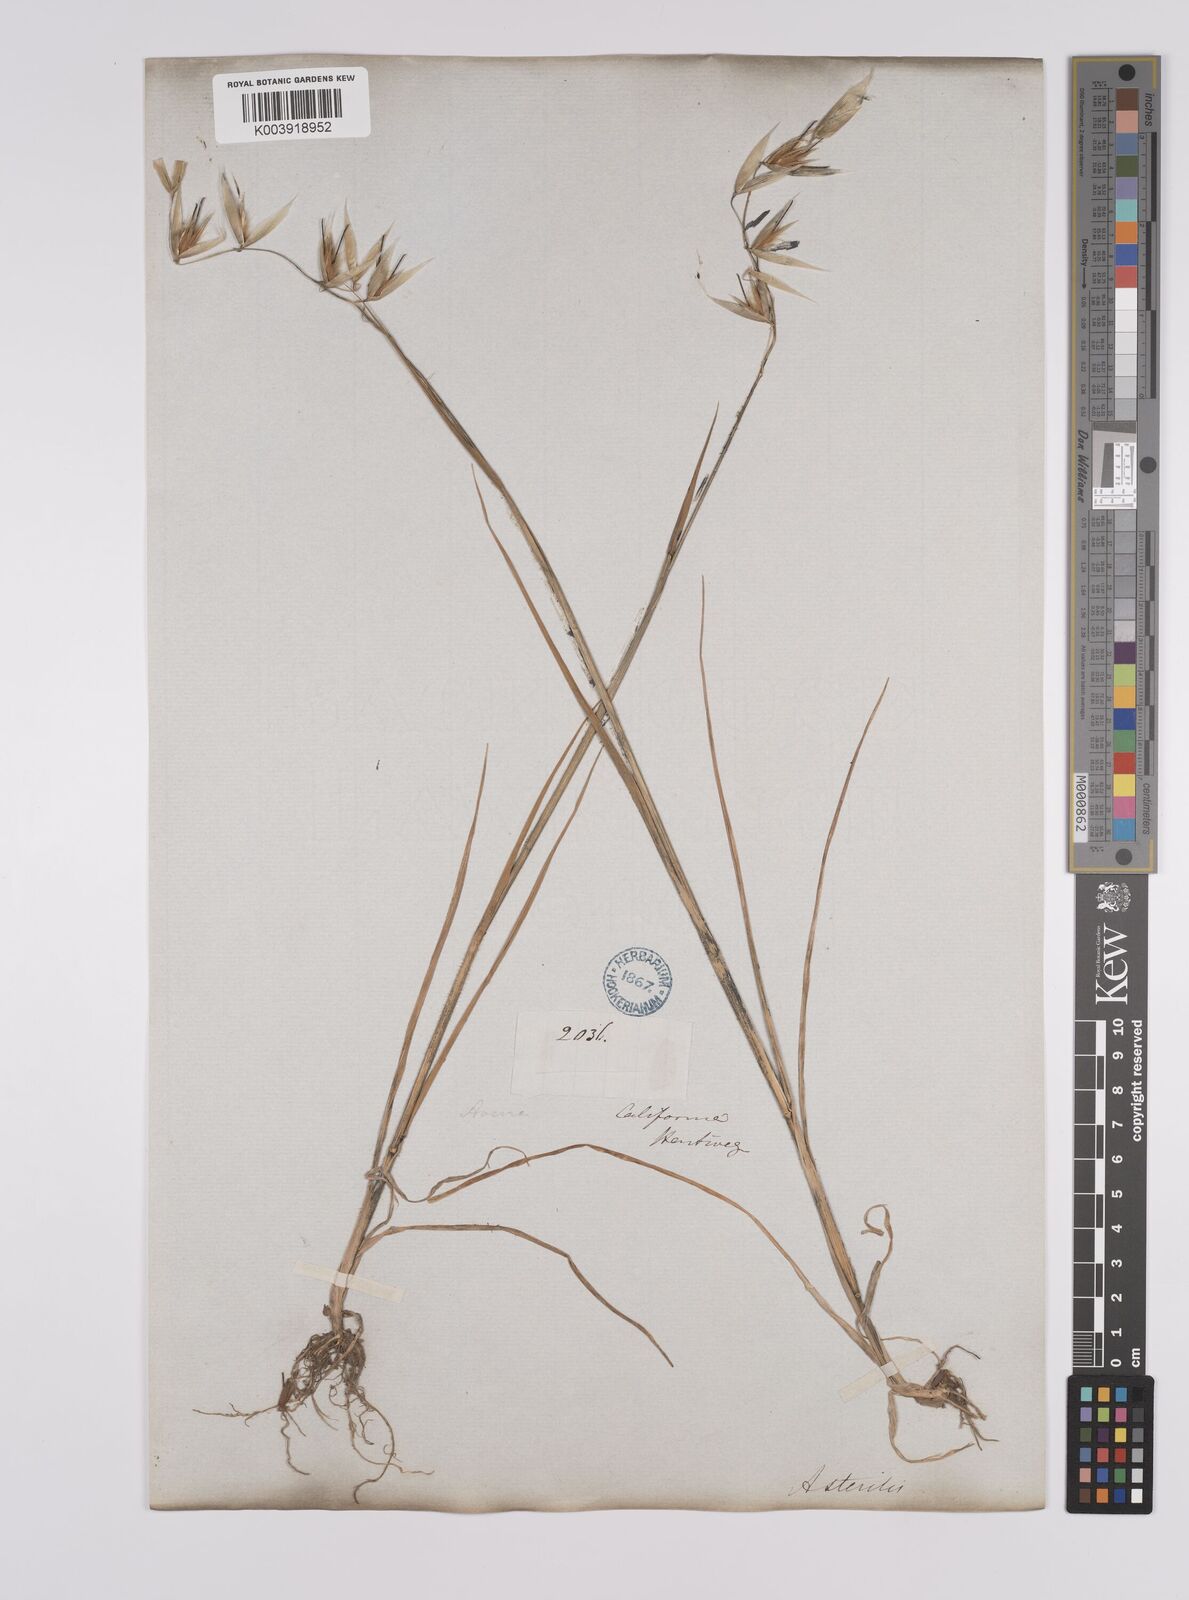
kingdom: Plantae
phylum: Tracheophyta
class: Liliopsida
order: Poales
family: Poaceae
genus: Avena
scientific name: Avena fatua
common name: Wild oat
